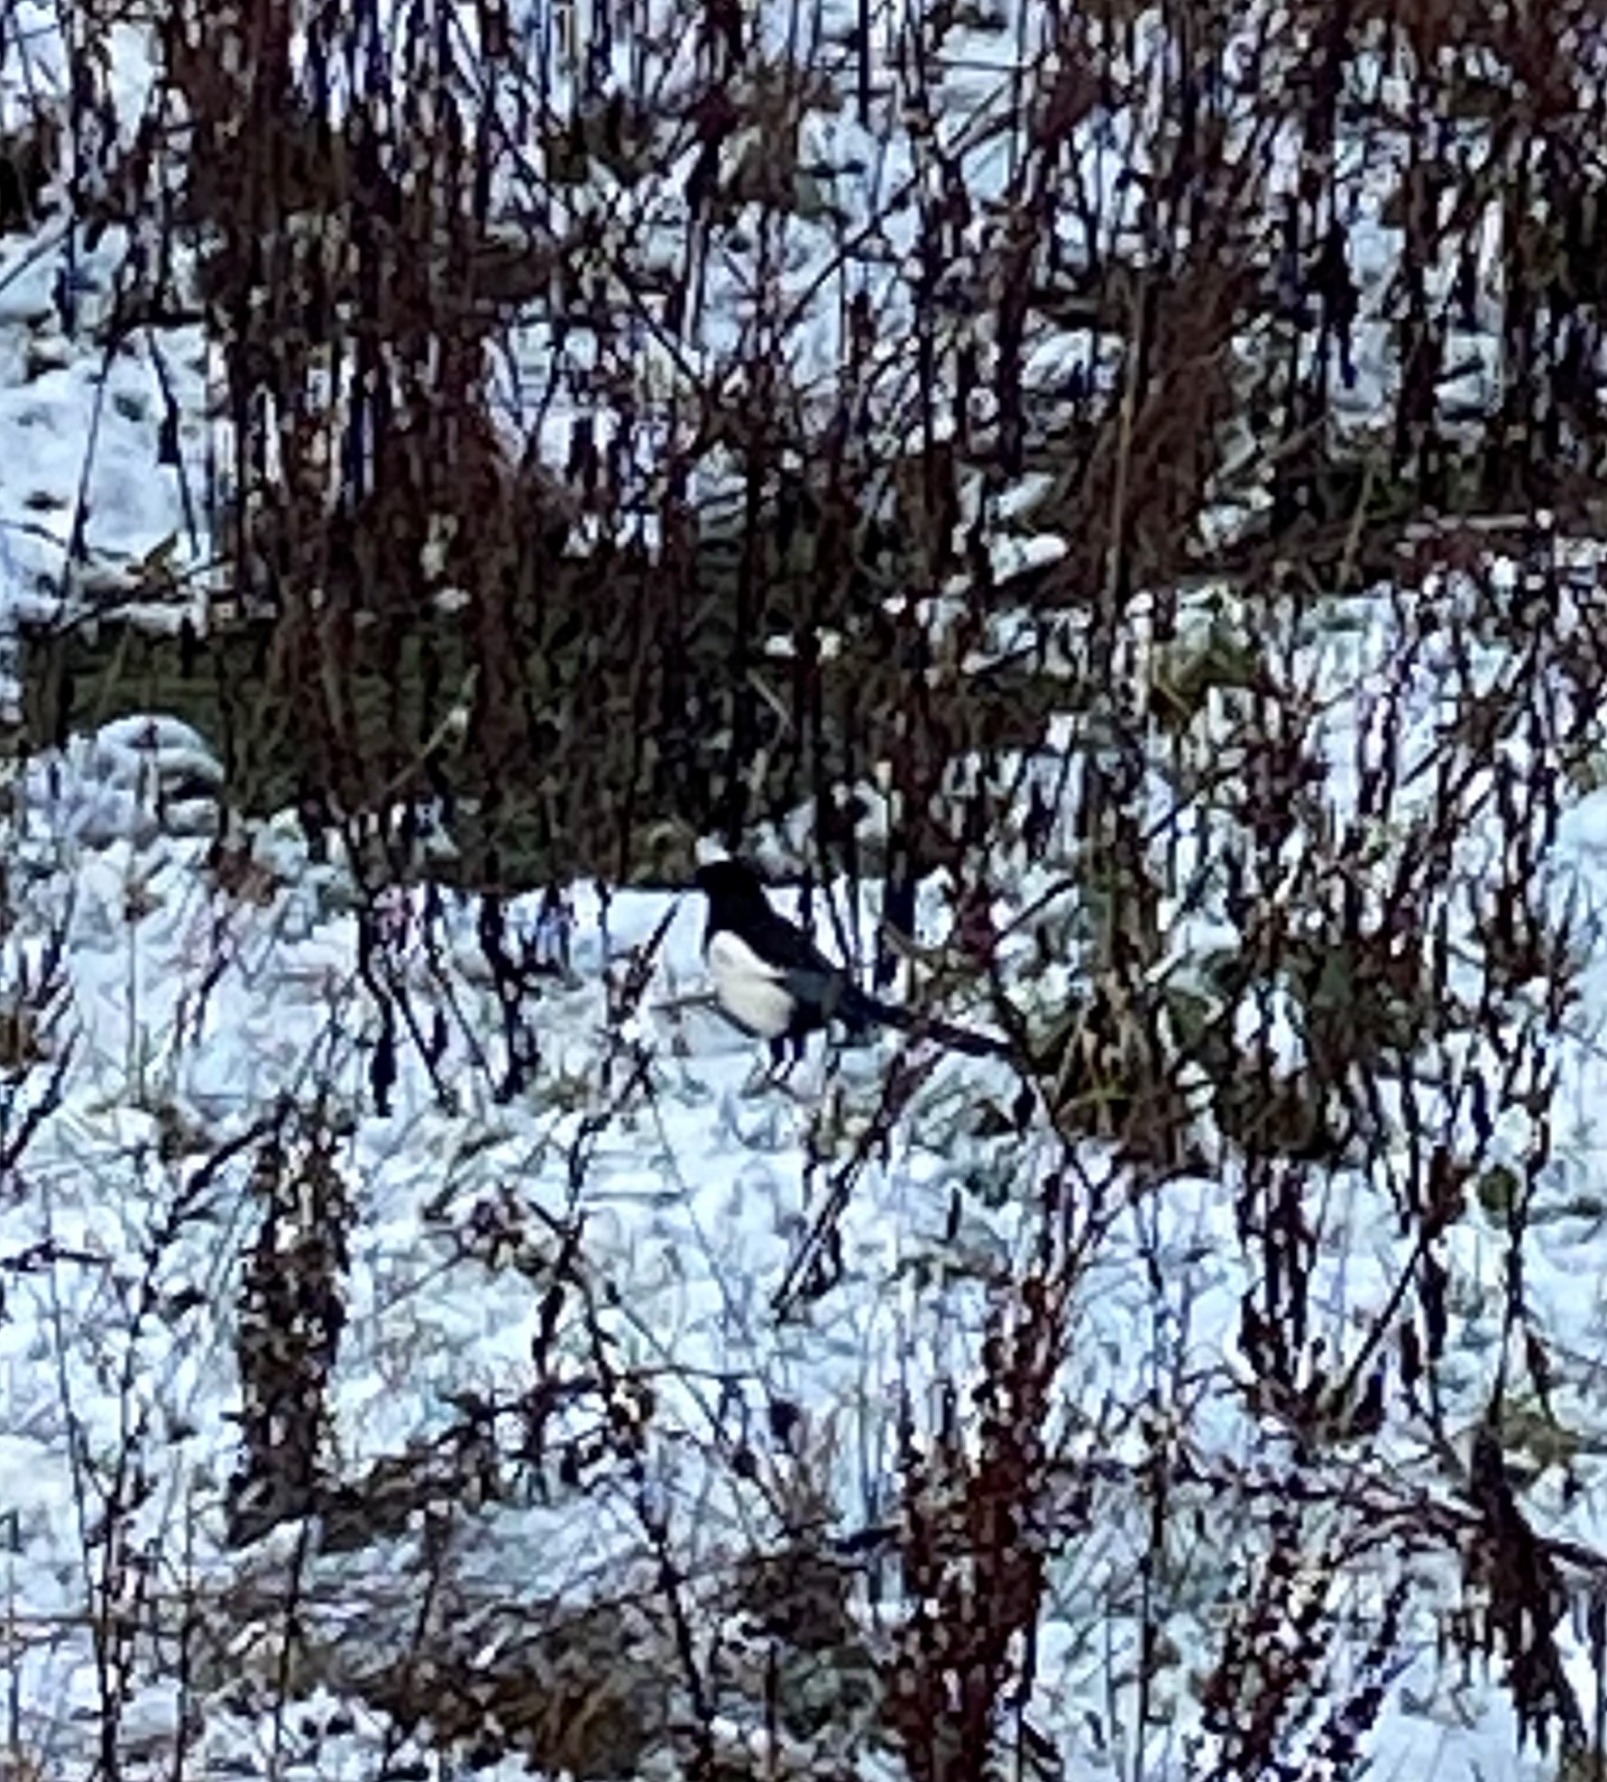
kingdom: Animalia
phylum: Chordata
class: Aves
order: Passeriformes
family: Corvidae
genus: Pica
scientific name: Pica pica
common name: Husskade
